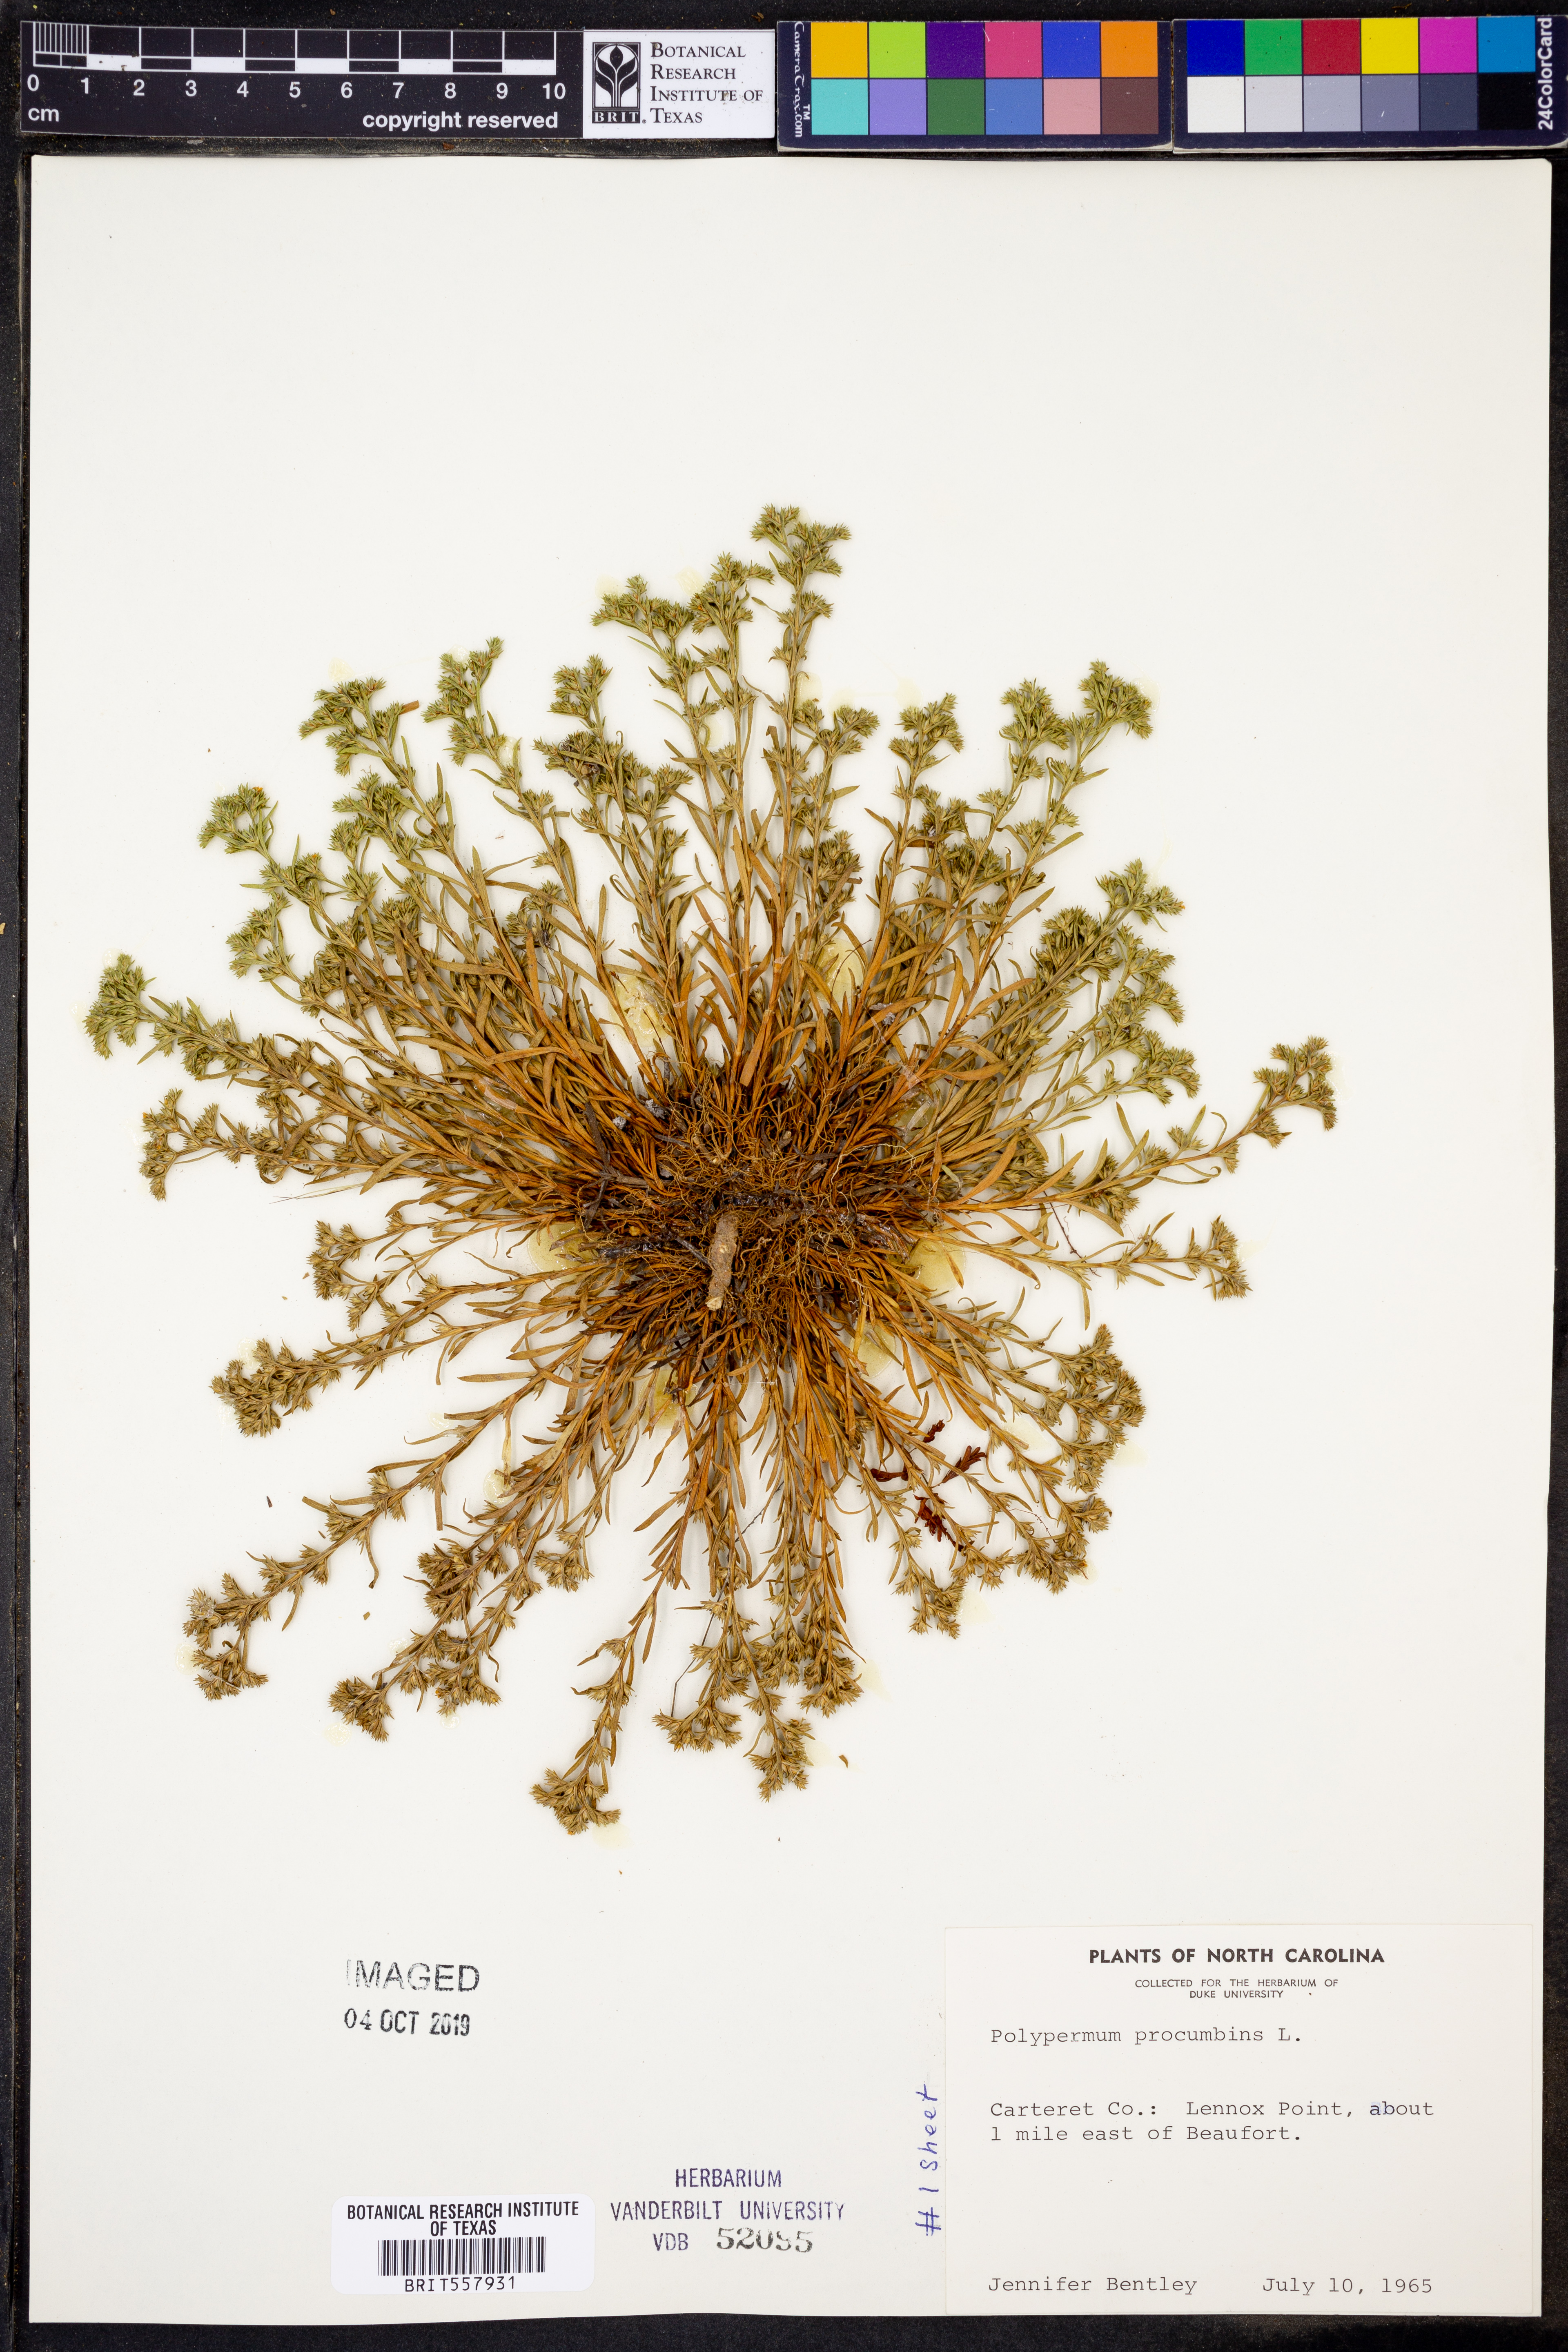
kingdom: Plantae
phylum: Tracheophyta
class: Magnoliopsida
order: Lamiales
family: Tetrachondraceae
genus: Polypremum
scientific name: Polypremum procumbens
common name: Juniper-leaf
